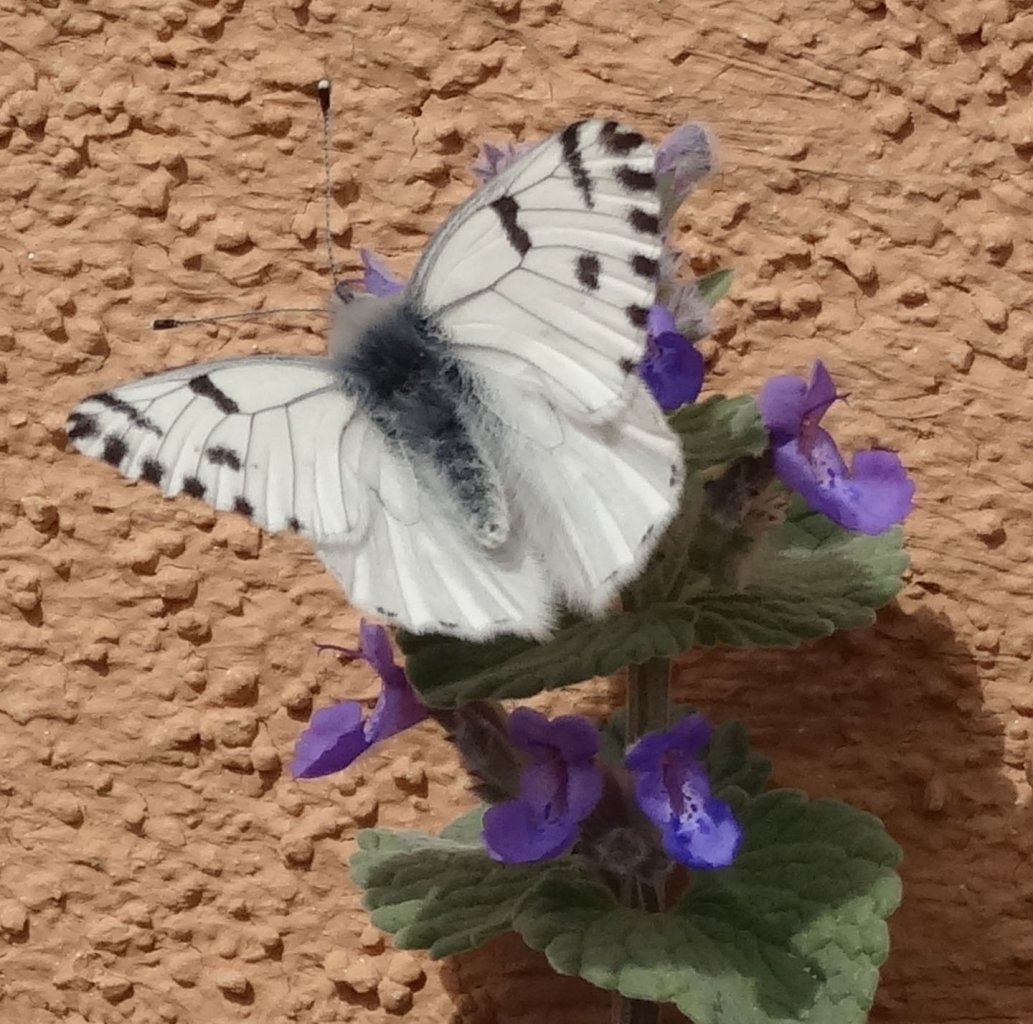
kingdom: Animalia
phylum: Arthropoda
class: Insecta
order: Lepidoptera
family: Pieridae
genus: Pontia
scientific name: Pontia sisymbrii
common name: Spring White
